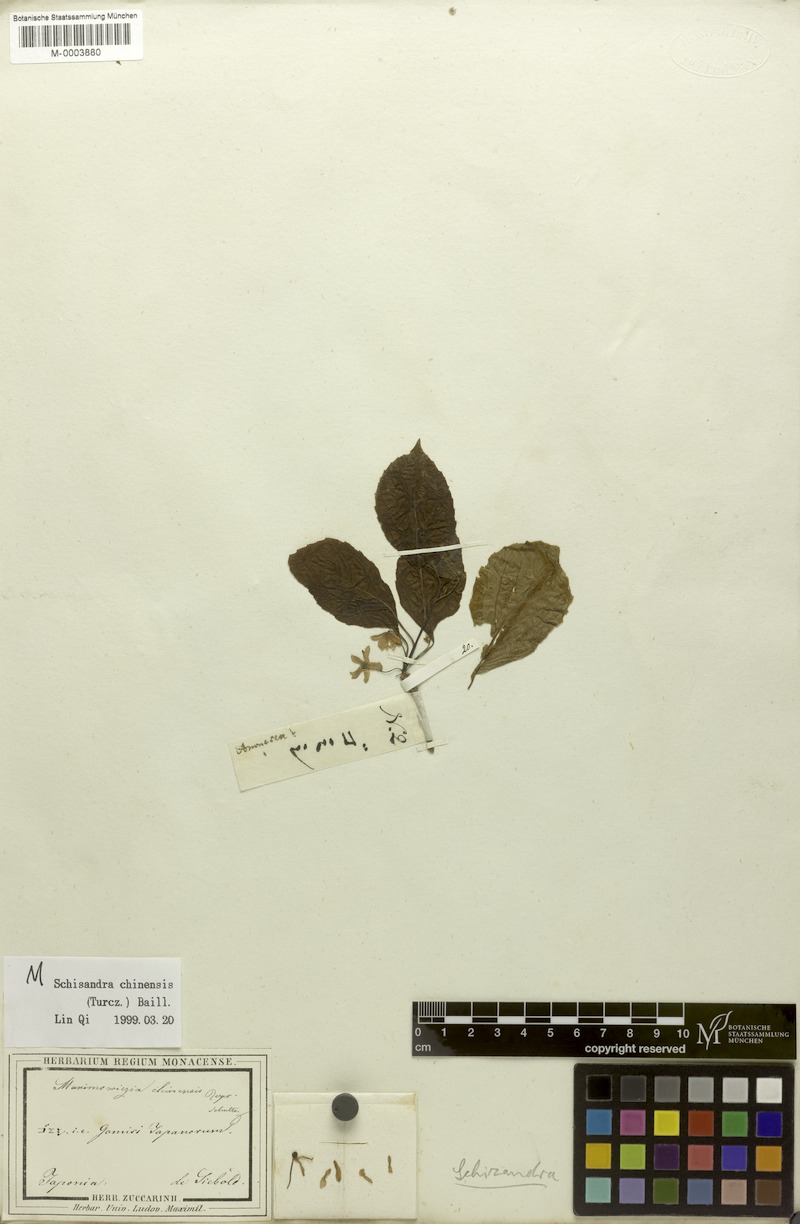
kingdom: Plantae
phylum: Tracheophyta
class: Magnoliopsida
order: Austrobaileyales
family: Schisandraceae
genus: Schisandra
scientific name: Schisandra chinensis
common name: Magnolia-vine
